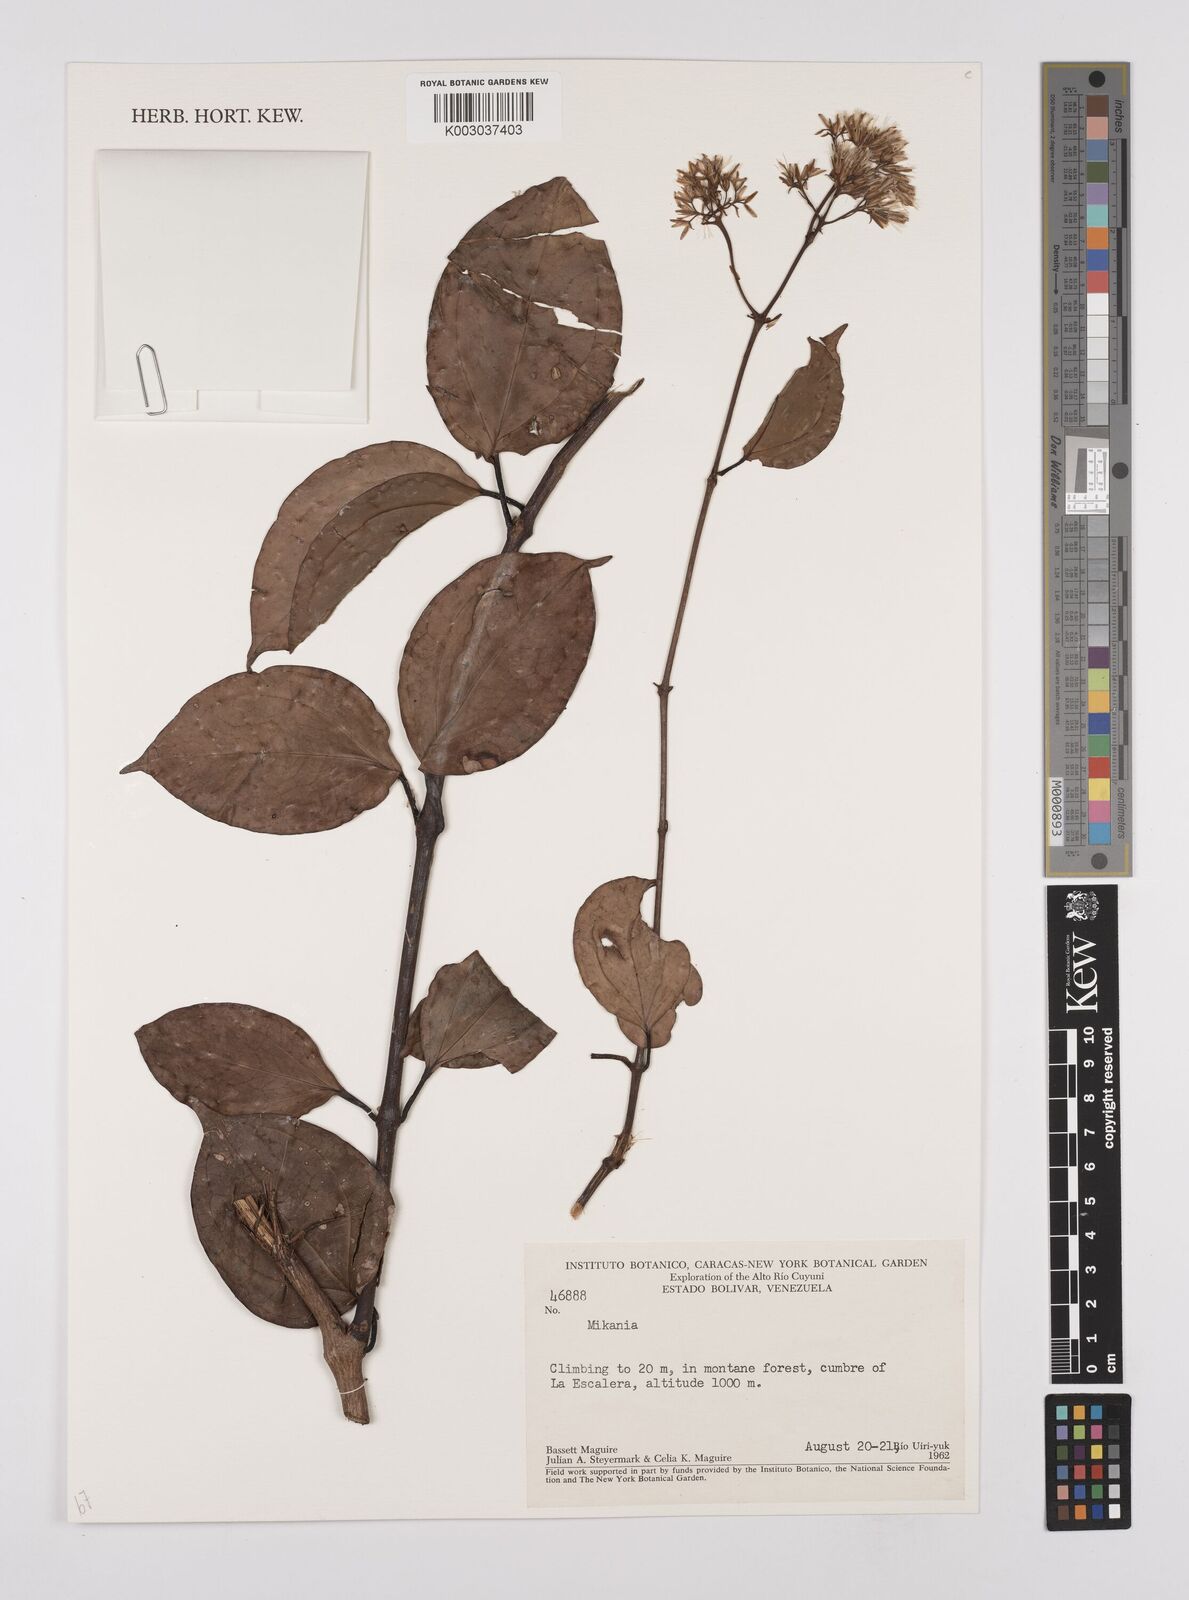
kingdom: Plantae
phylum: Tracheophyta
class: Magnoliopsida
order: Asterales
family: Asteraceae
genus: Mikania
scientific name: Mikania
